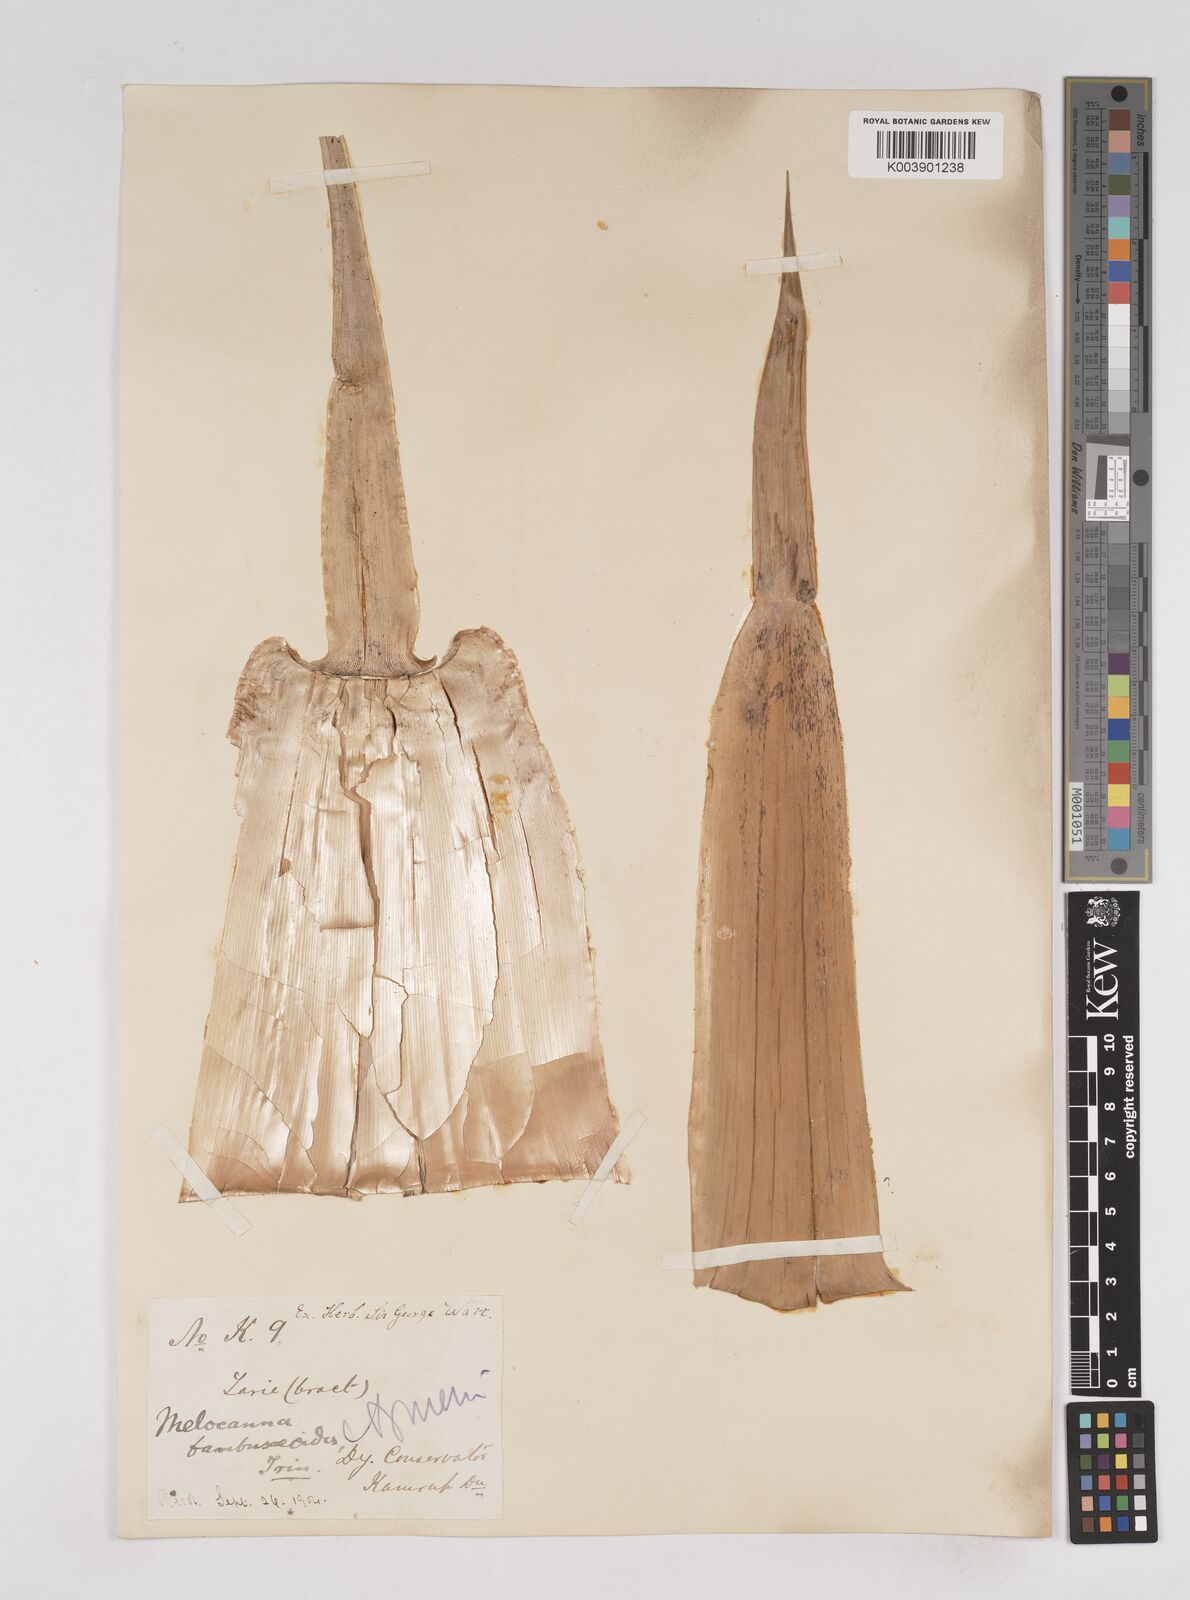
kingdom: Plantae
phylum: Tracheophyta
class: Liliopsida
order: Poales
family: Poaceae
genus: Melocanna
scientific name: Melocanna baccifera
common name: Berry bamboo
